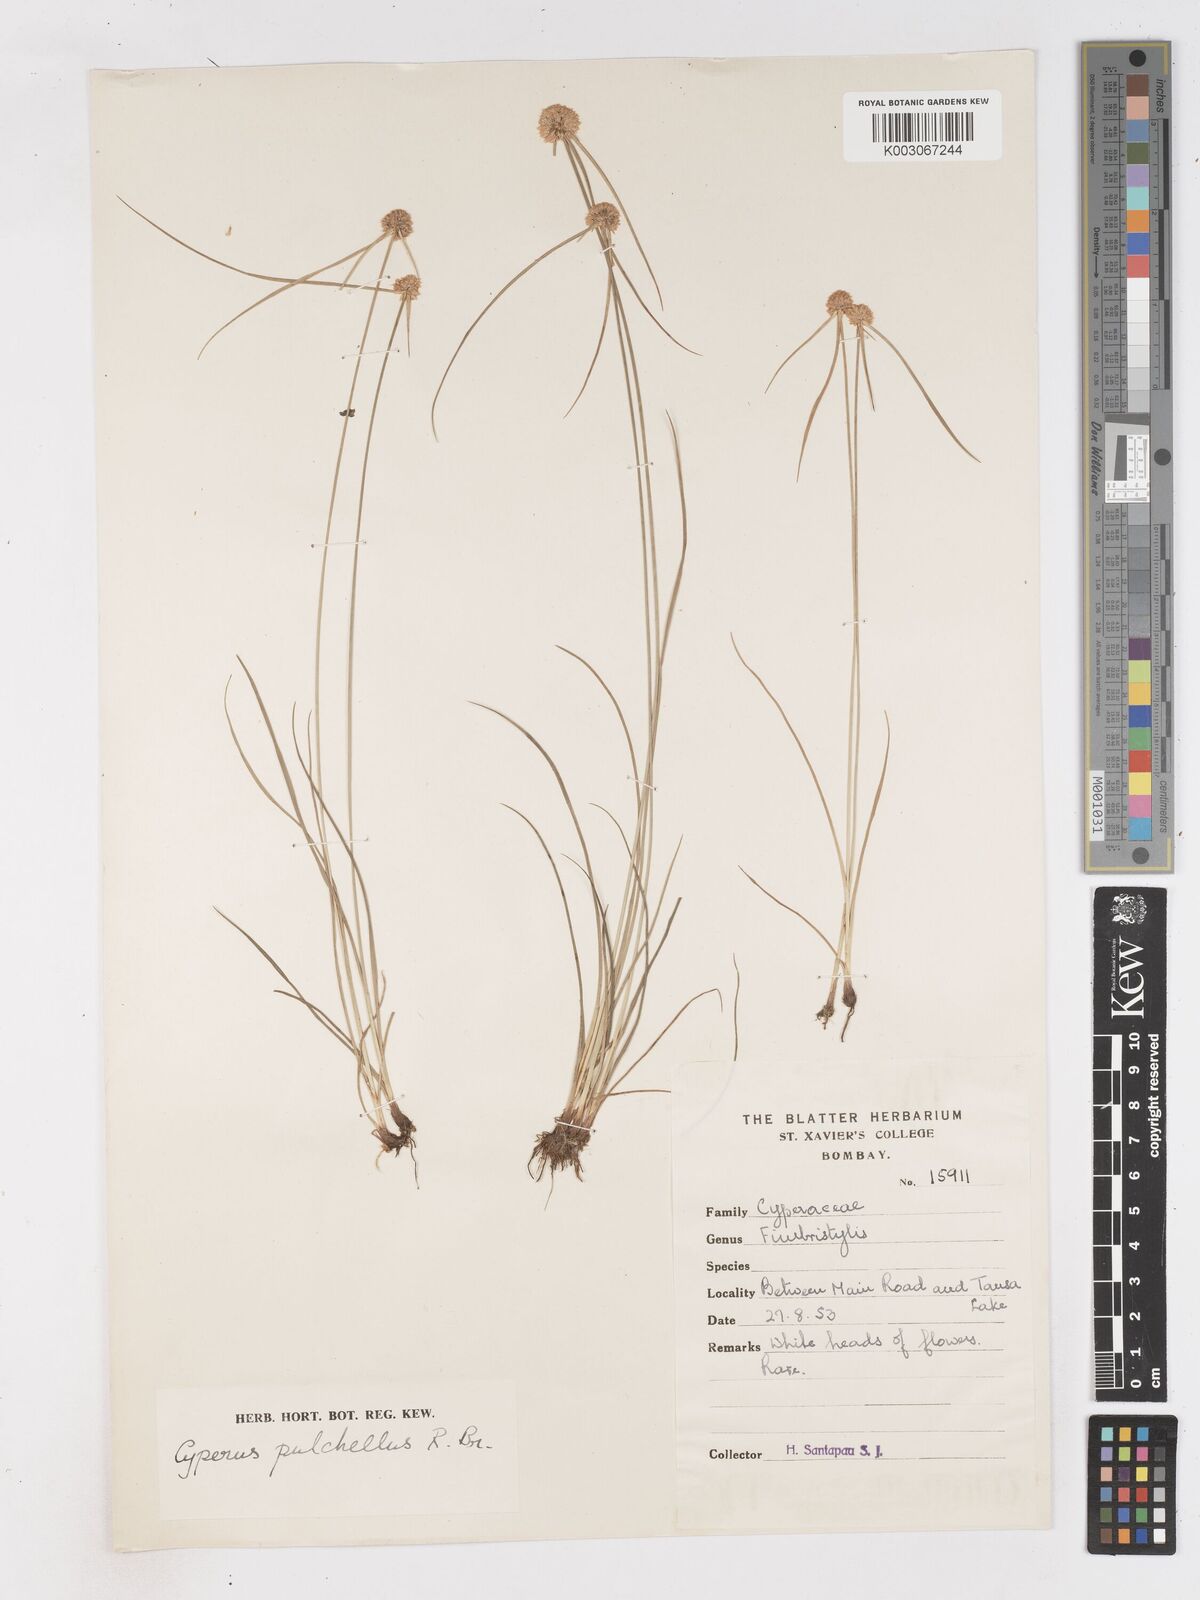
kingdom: Plantae
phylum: Tracheophyta
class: Liliopsida
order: Poales
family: Cyperaceae
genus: Cyperus
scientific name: Cyperus pulchellus
